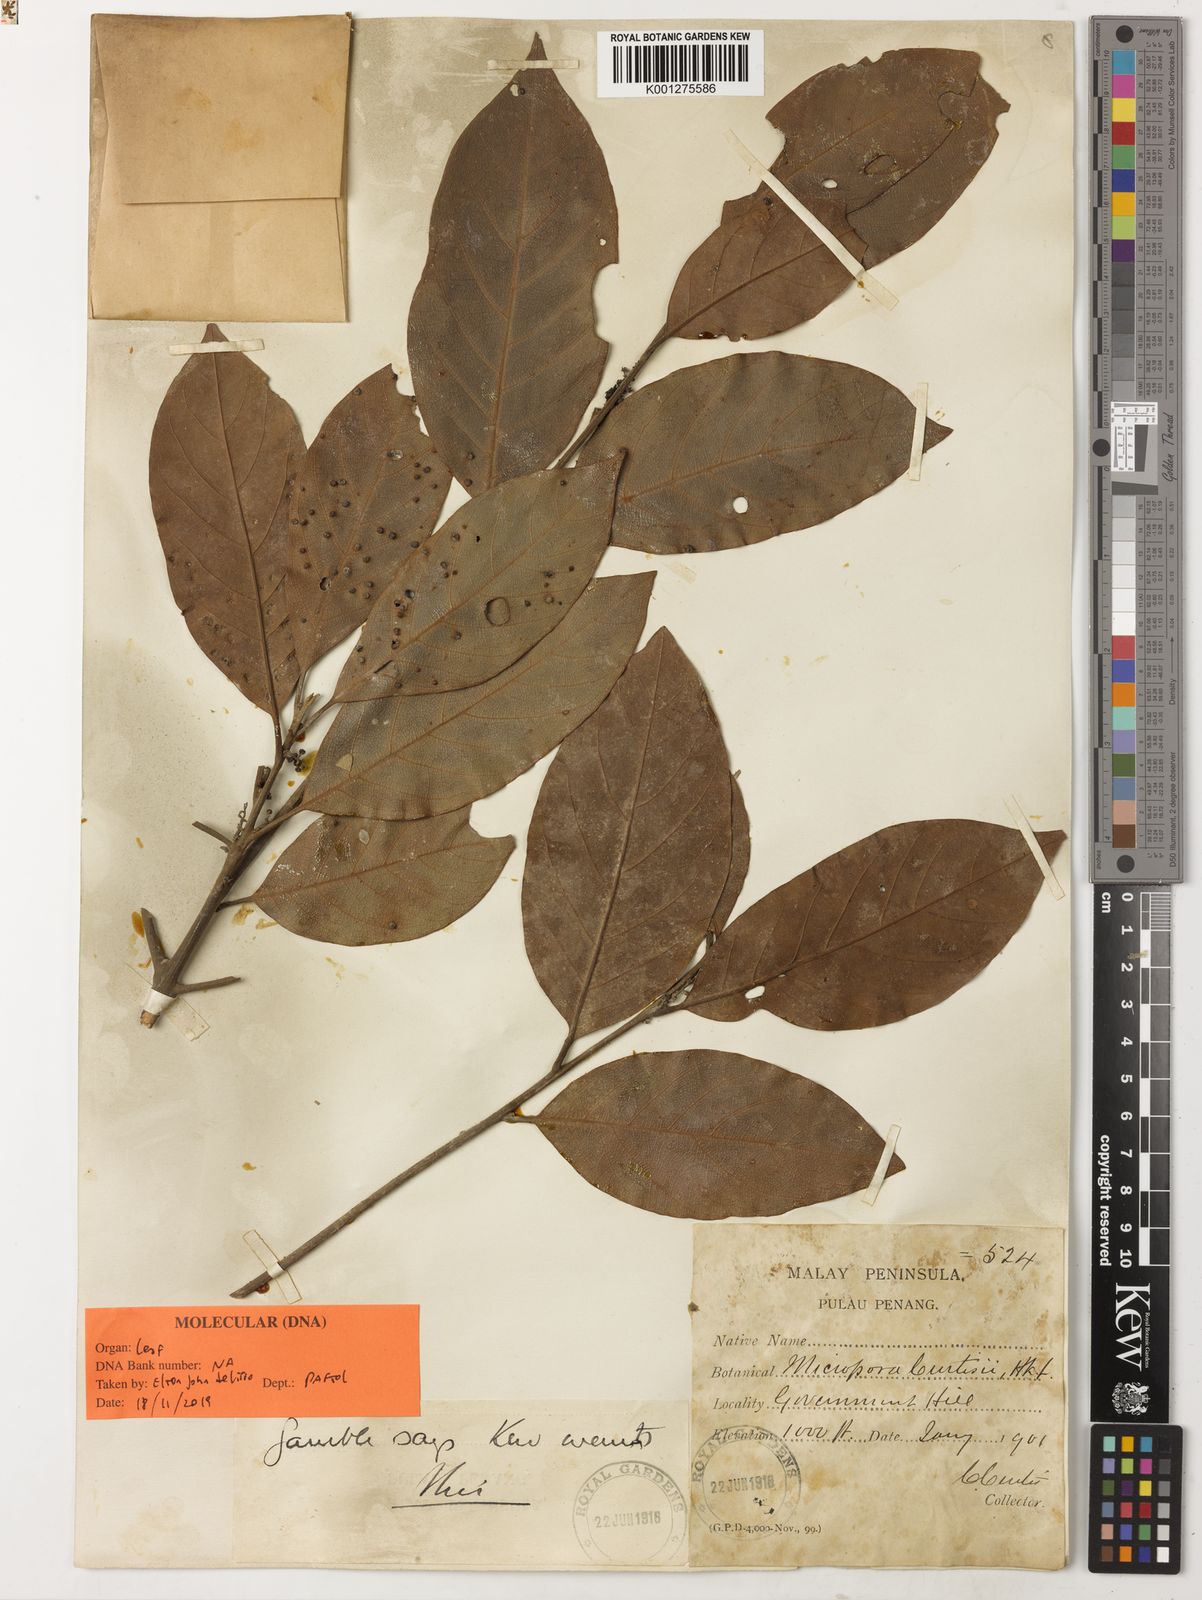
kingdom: Plantae
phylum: Tracheophyta
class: Magnoliopsida
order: Laurales
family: Lauraceae
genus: Hexapora
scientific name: Hexapora curtisii
